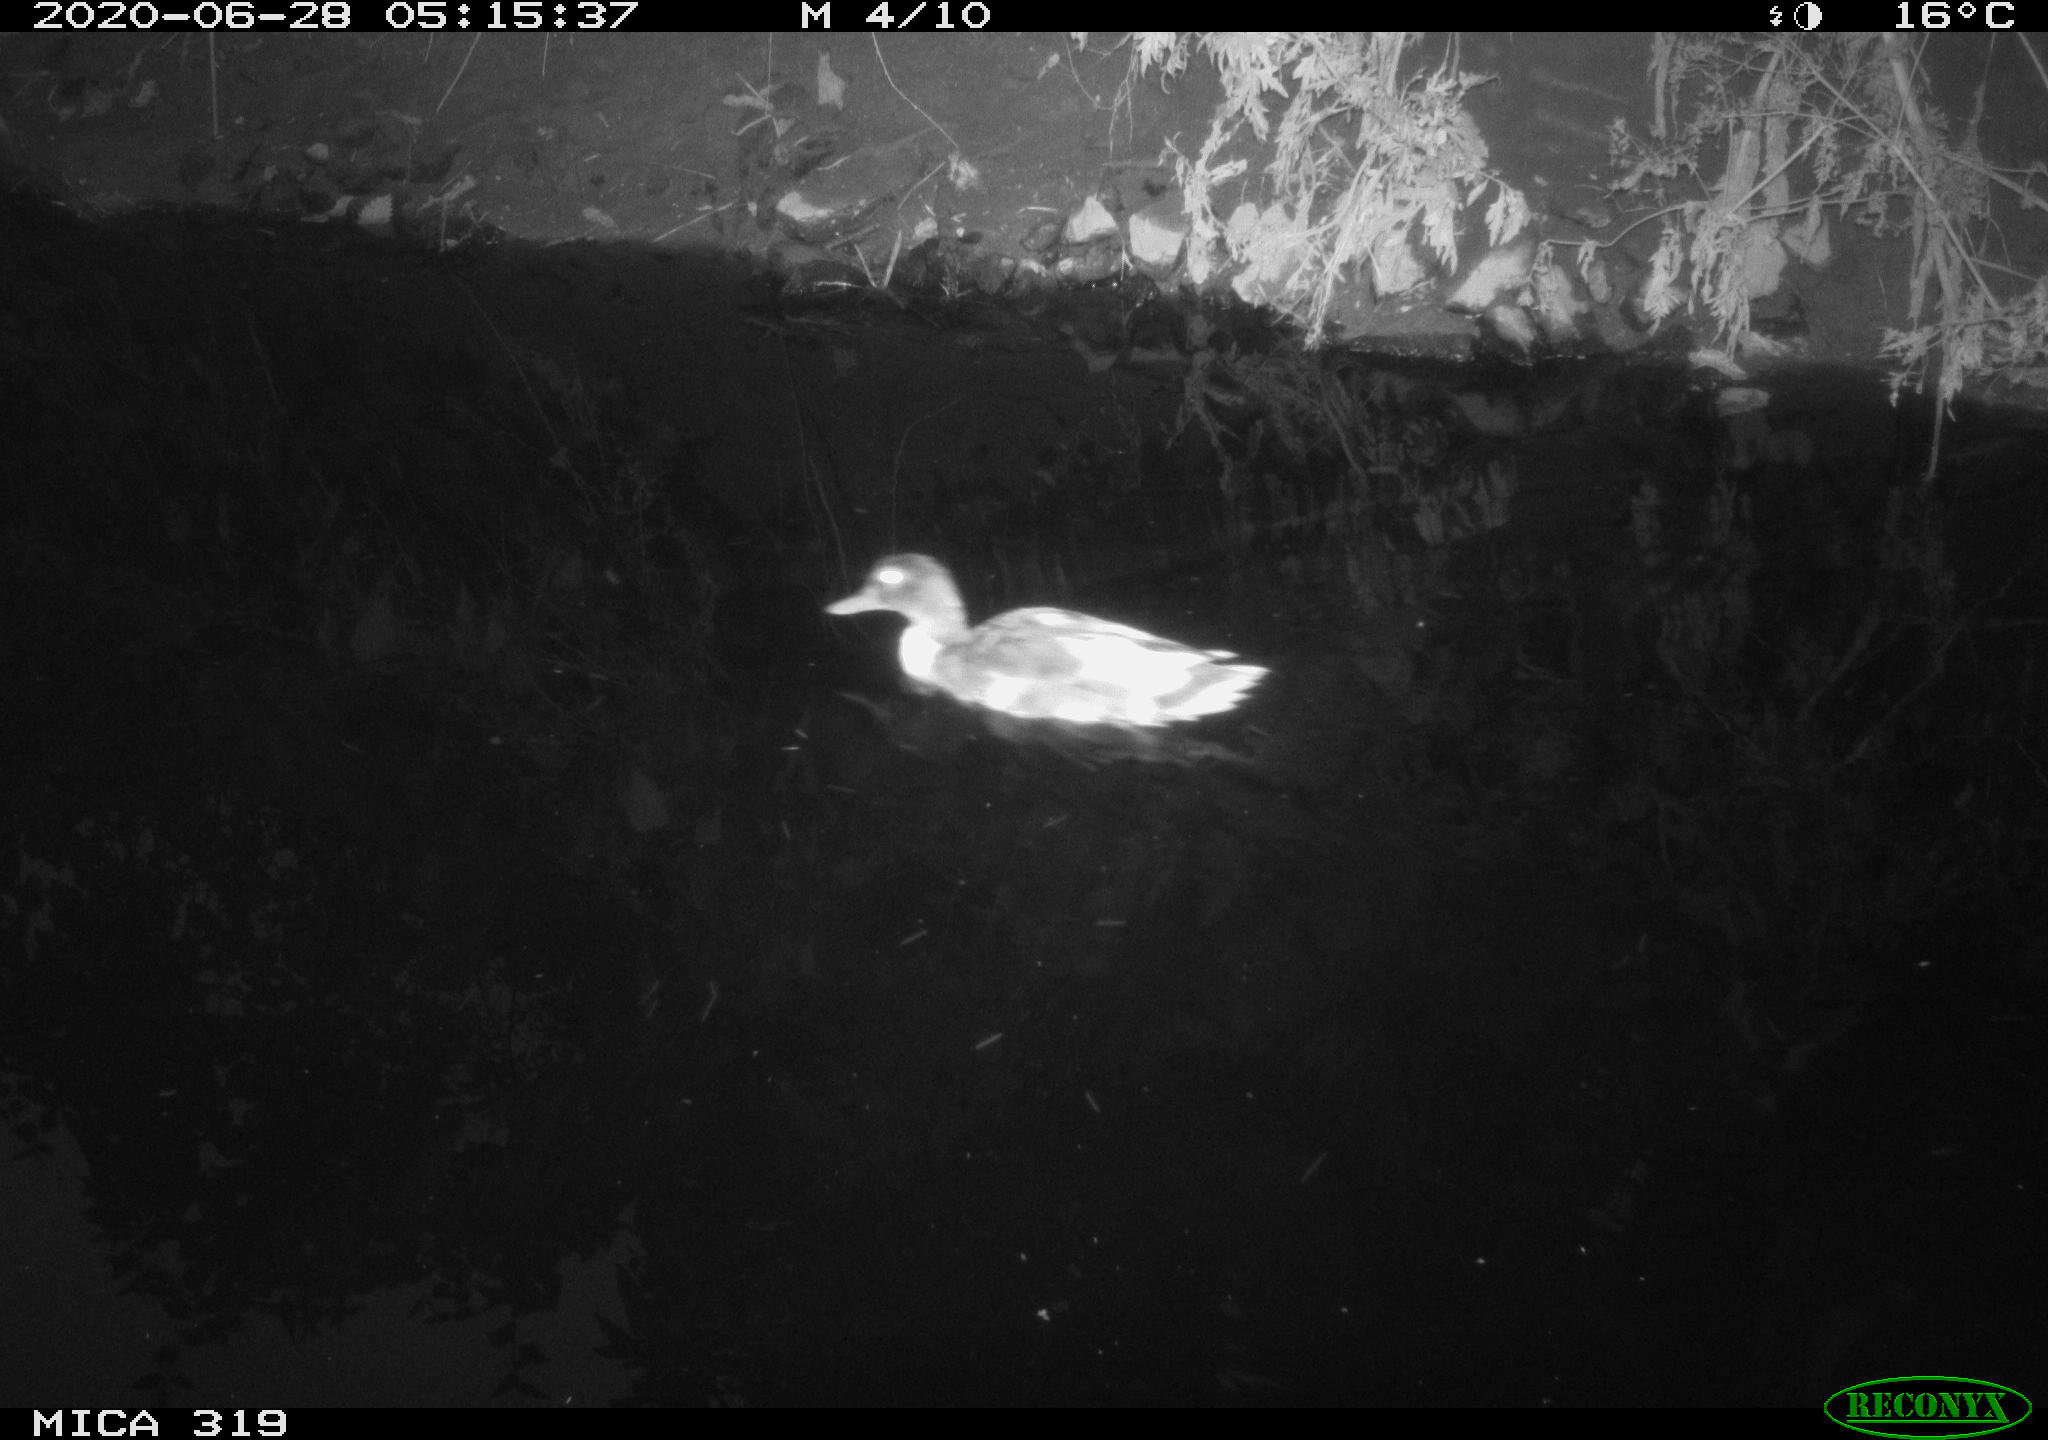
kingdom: Animalia
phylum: Chordata
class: Aves
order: Anseriformes
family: Anatidae
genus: Anas
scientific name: Anas platyrhynchos
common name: Mallard
